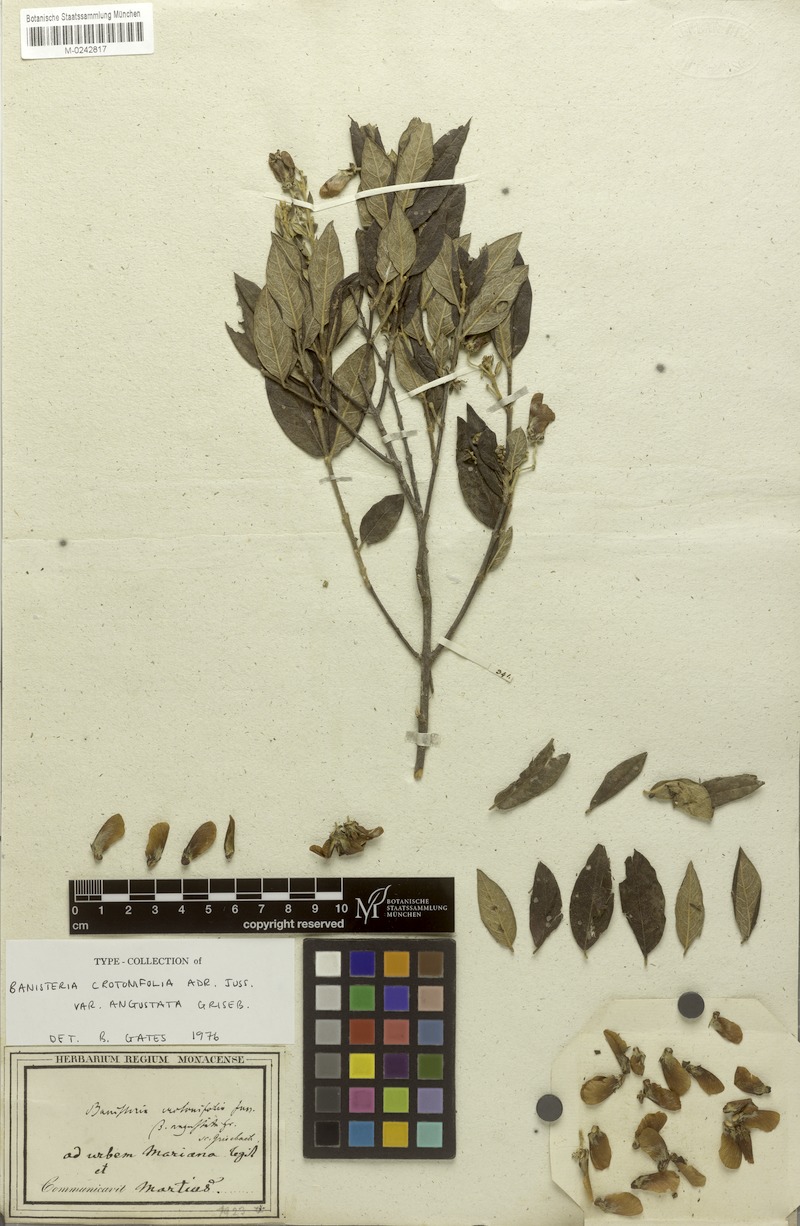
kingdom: Plantae
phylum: Tracheophyta
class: Magnoliopsida
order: Malpighiales
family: Malpighiaceae
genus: Banisteriopsis
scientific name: Banisteriopsis malifolia
